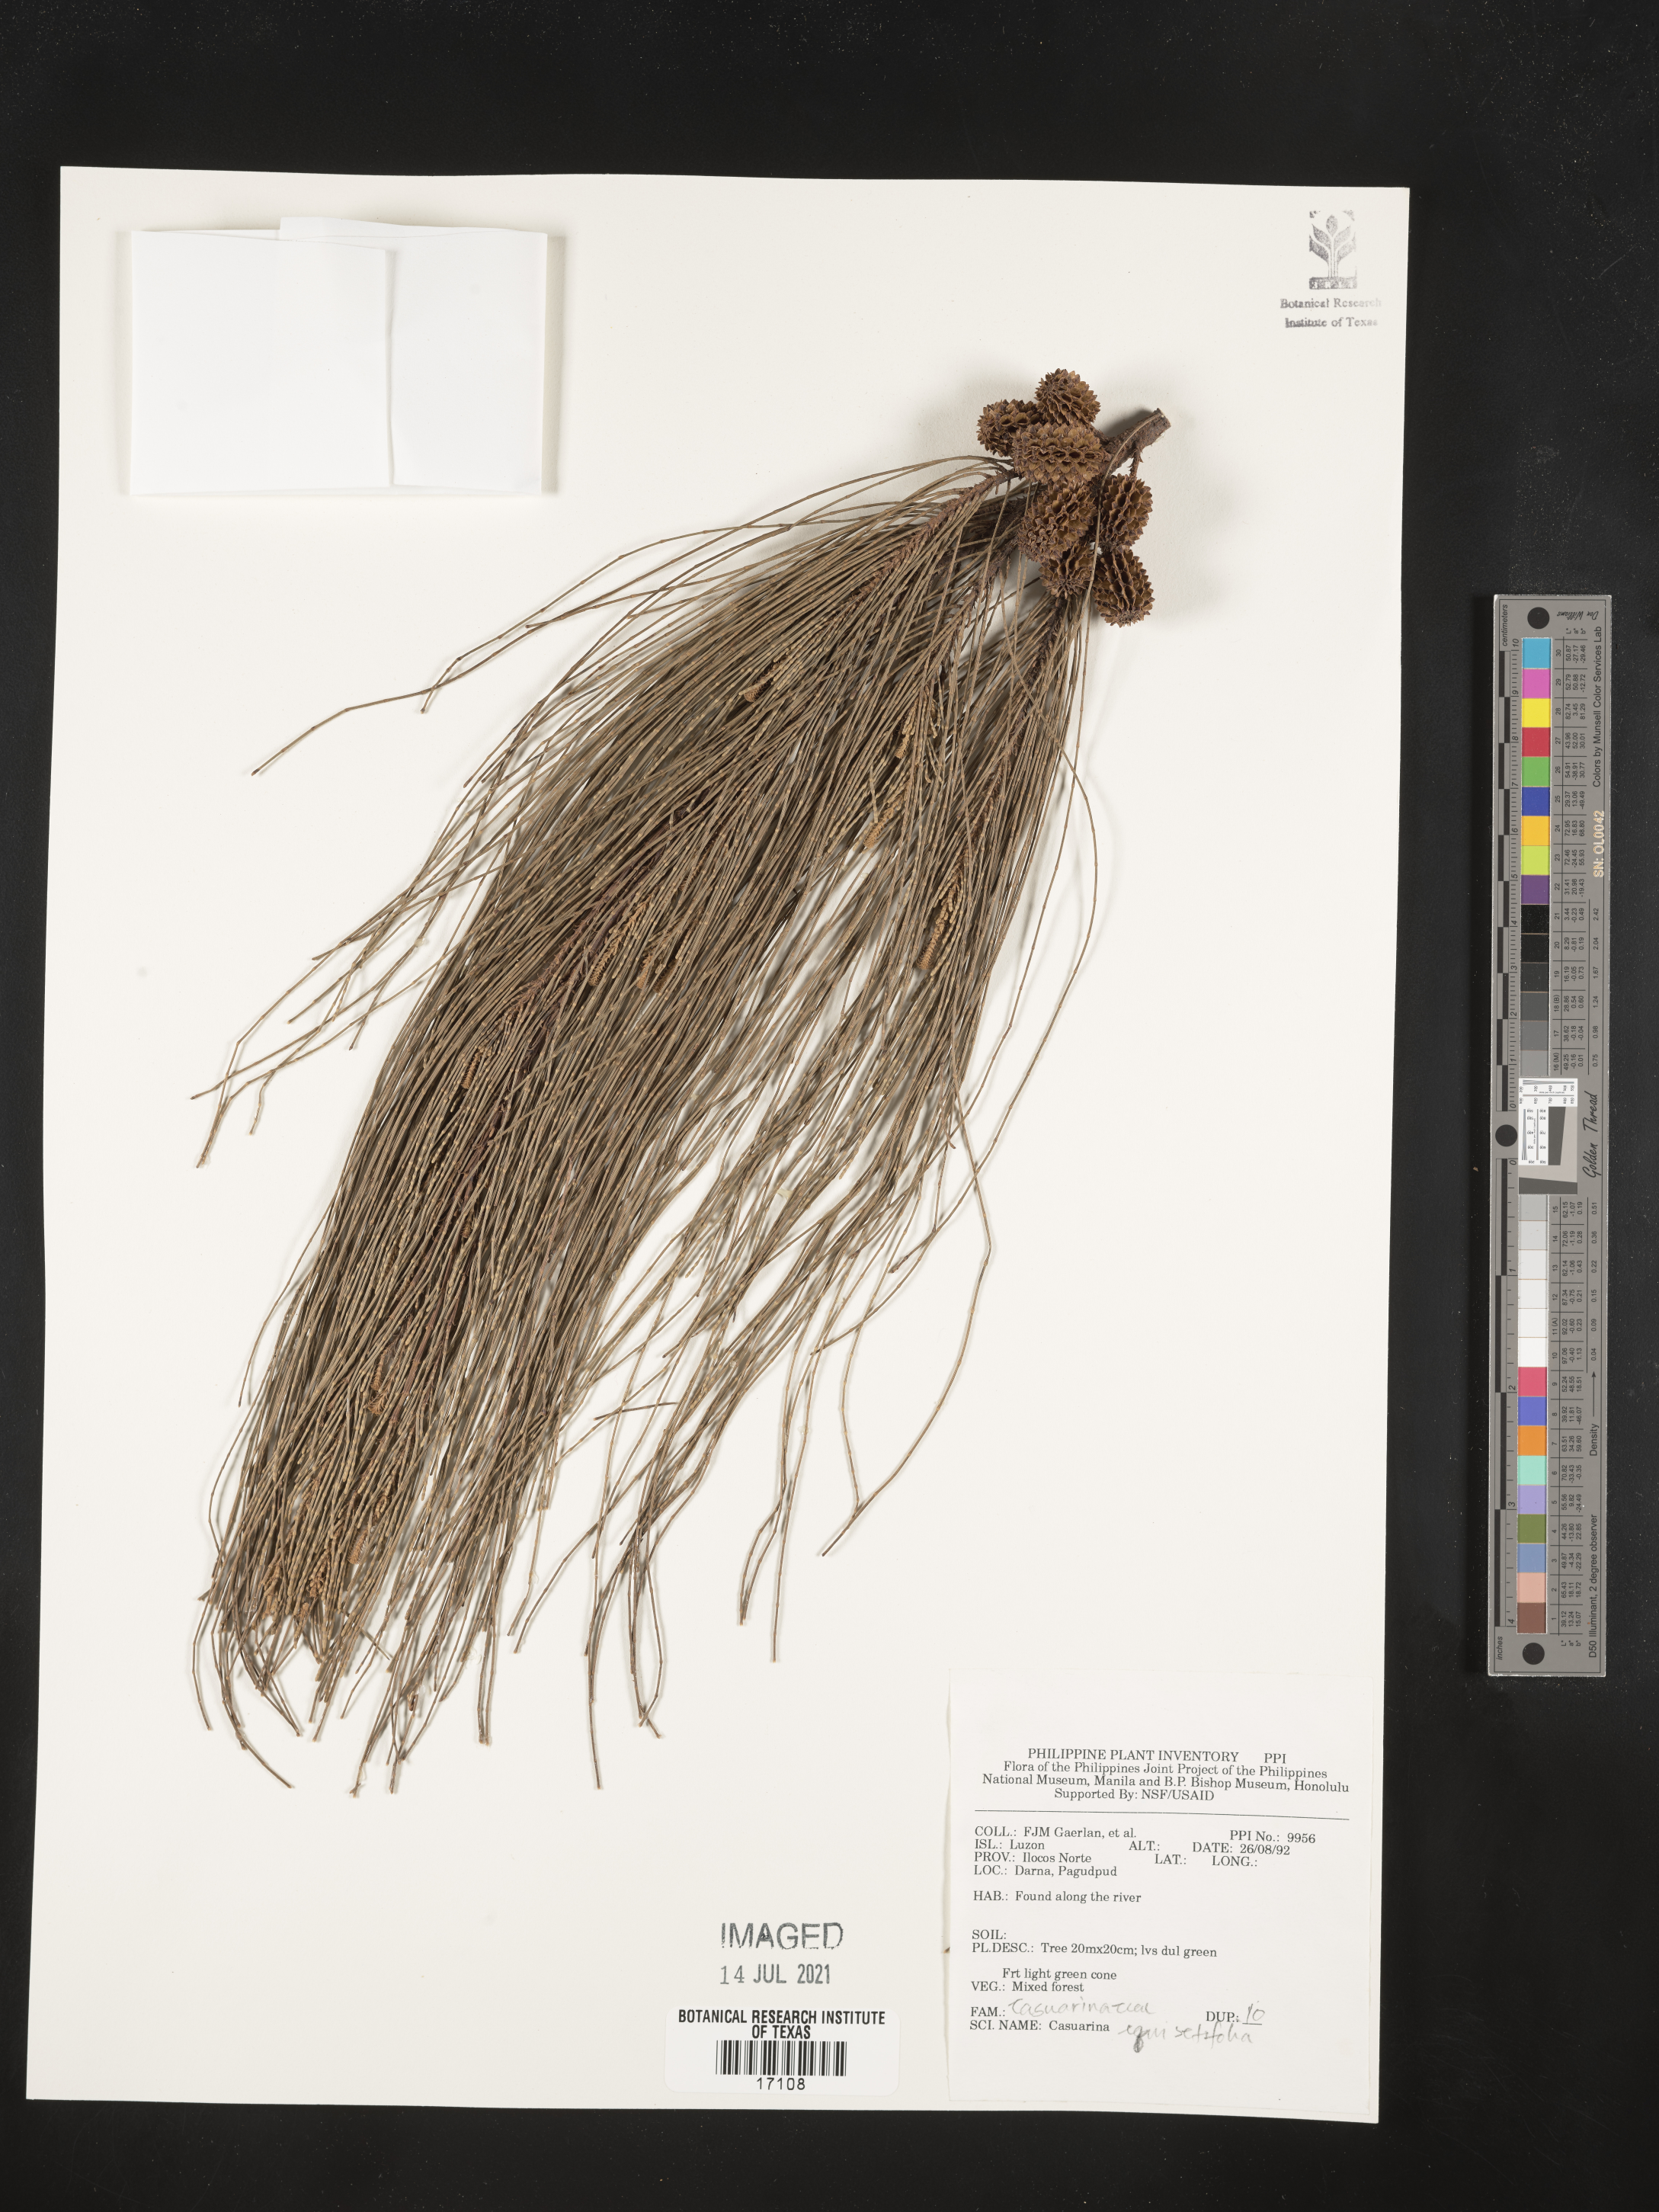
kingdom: Plantae
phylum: Tracheophyta
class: Magnoliopsida
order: Fagales
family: Casuarinaceae
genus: Casuarina
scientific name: Casuarina equisetifolia
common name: Beach sheoak
